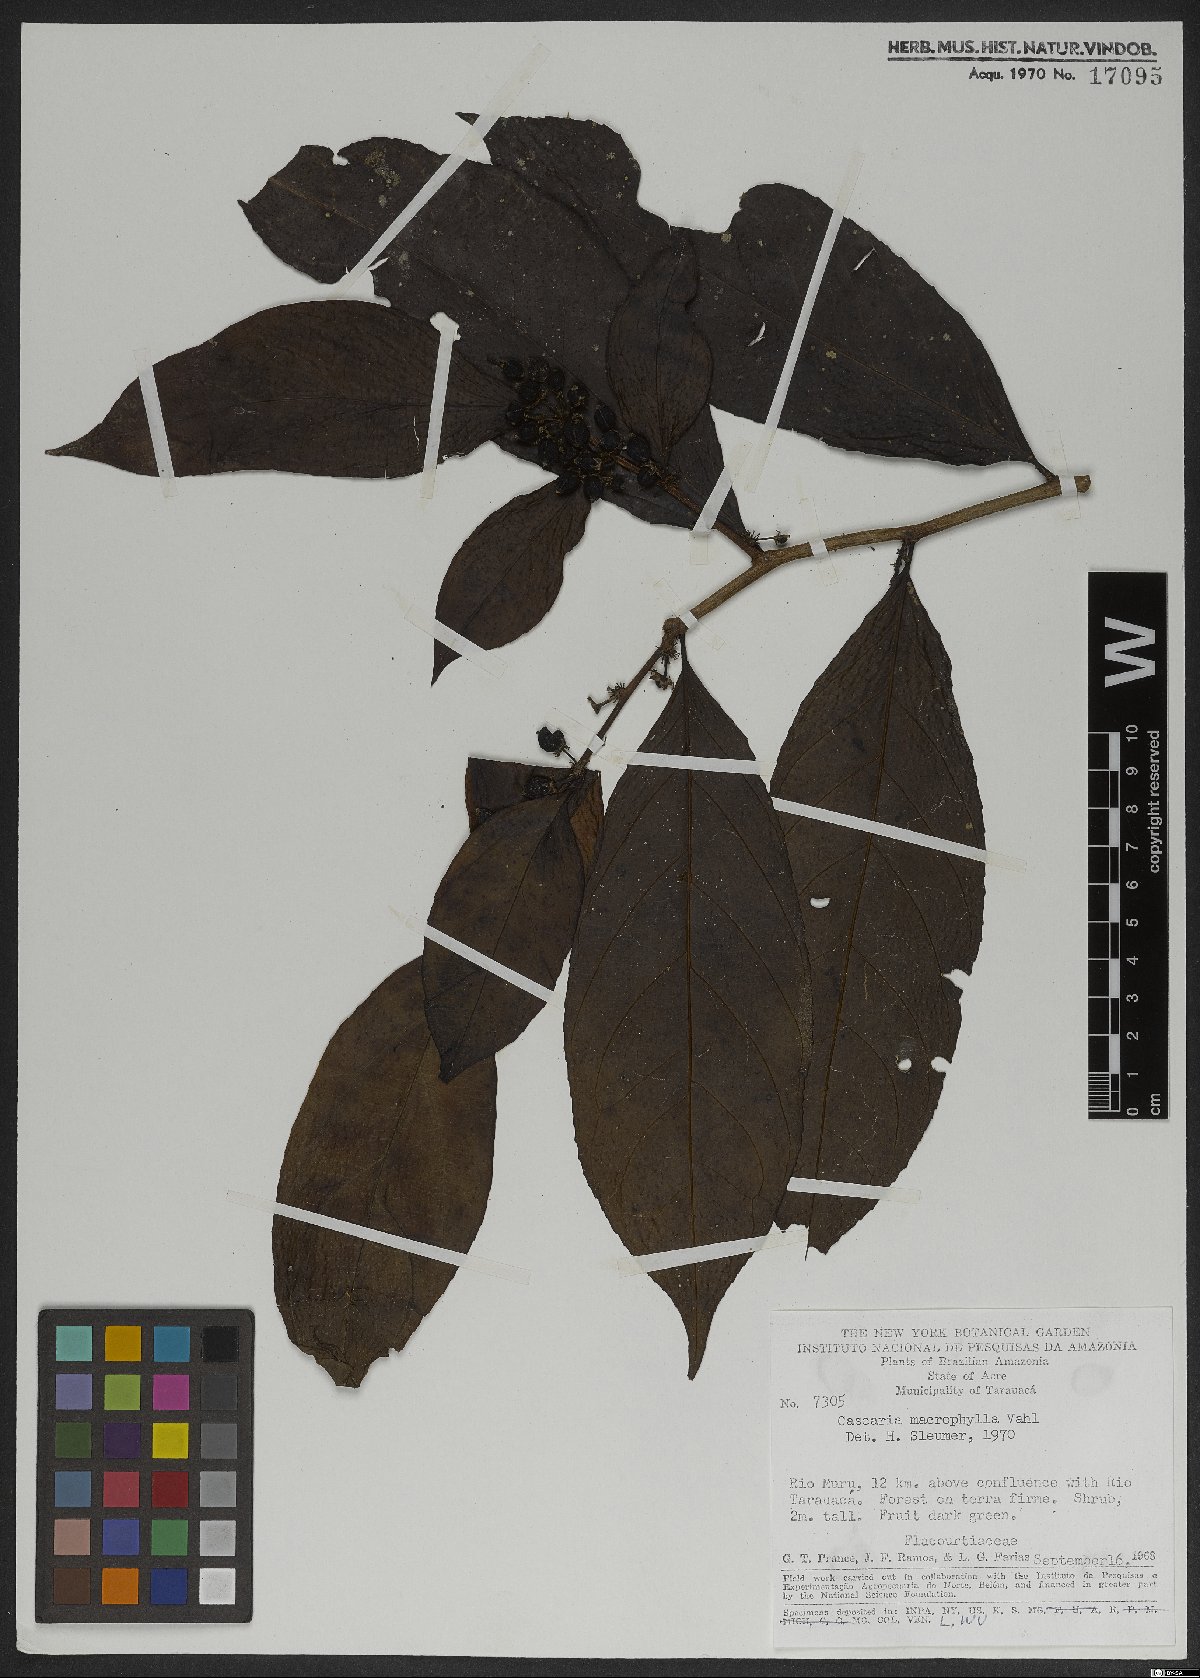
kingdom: Plantae
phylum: Tracheophyta
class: Magnoliopsida
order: Malpighiales
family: Salicaceae
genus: Casearia
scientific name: Casearia pitumba
